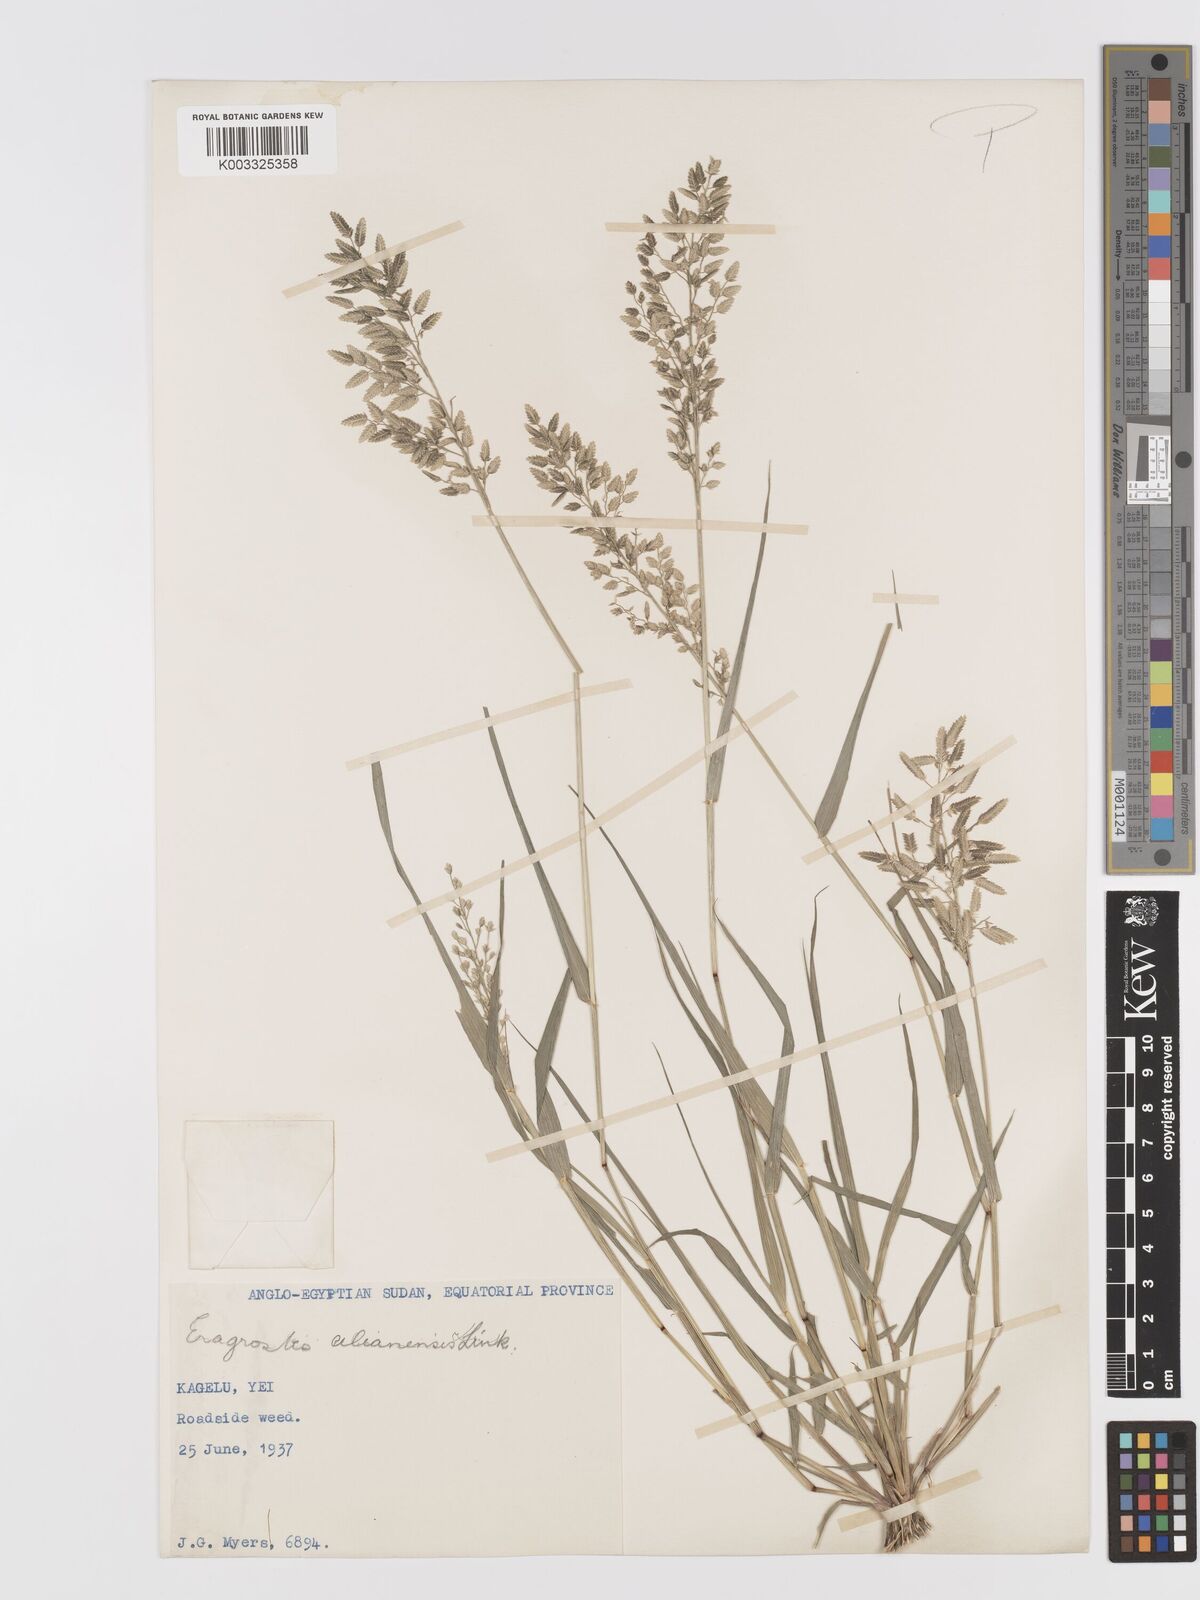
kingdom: Plantae
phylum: Tracheophyta
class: Liliopsida
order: Poales
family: Poaceae
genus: Eragrostis
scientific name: Eragrostis cilianensis
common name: Stinkgrass
